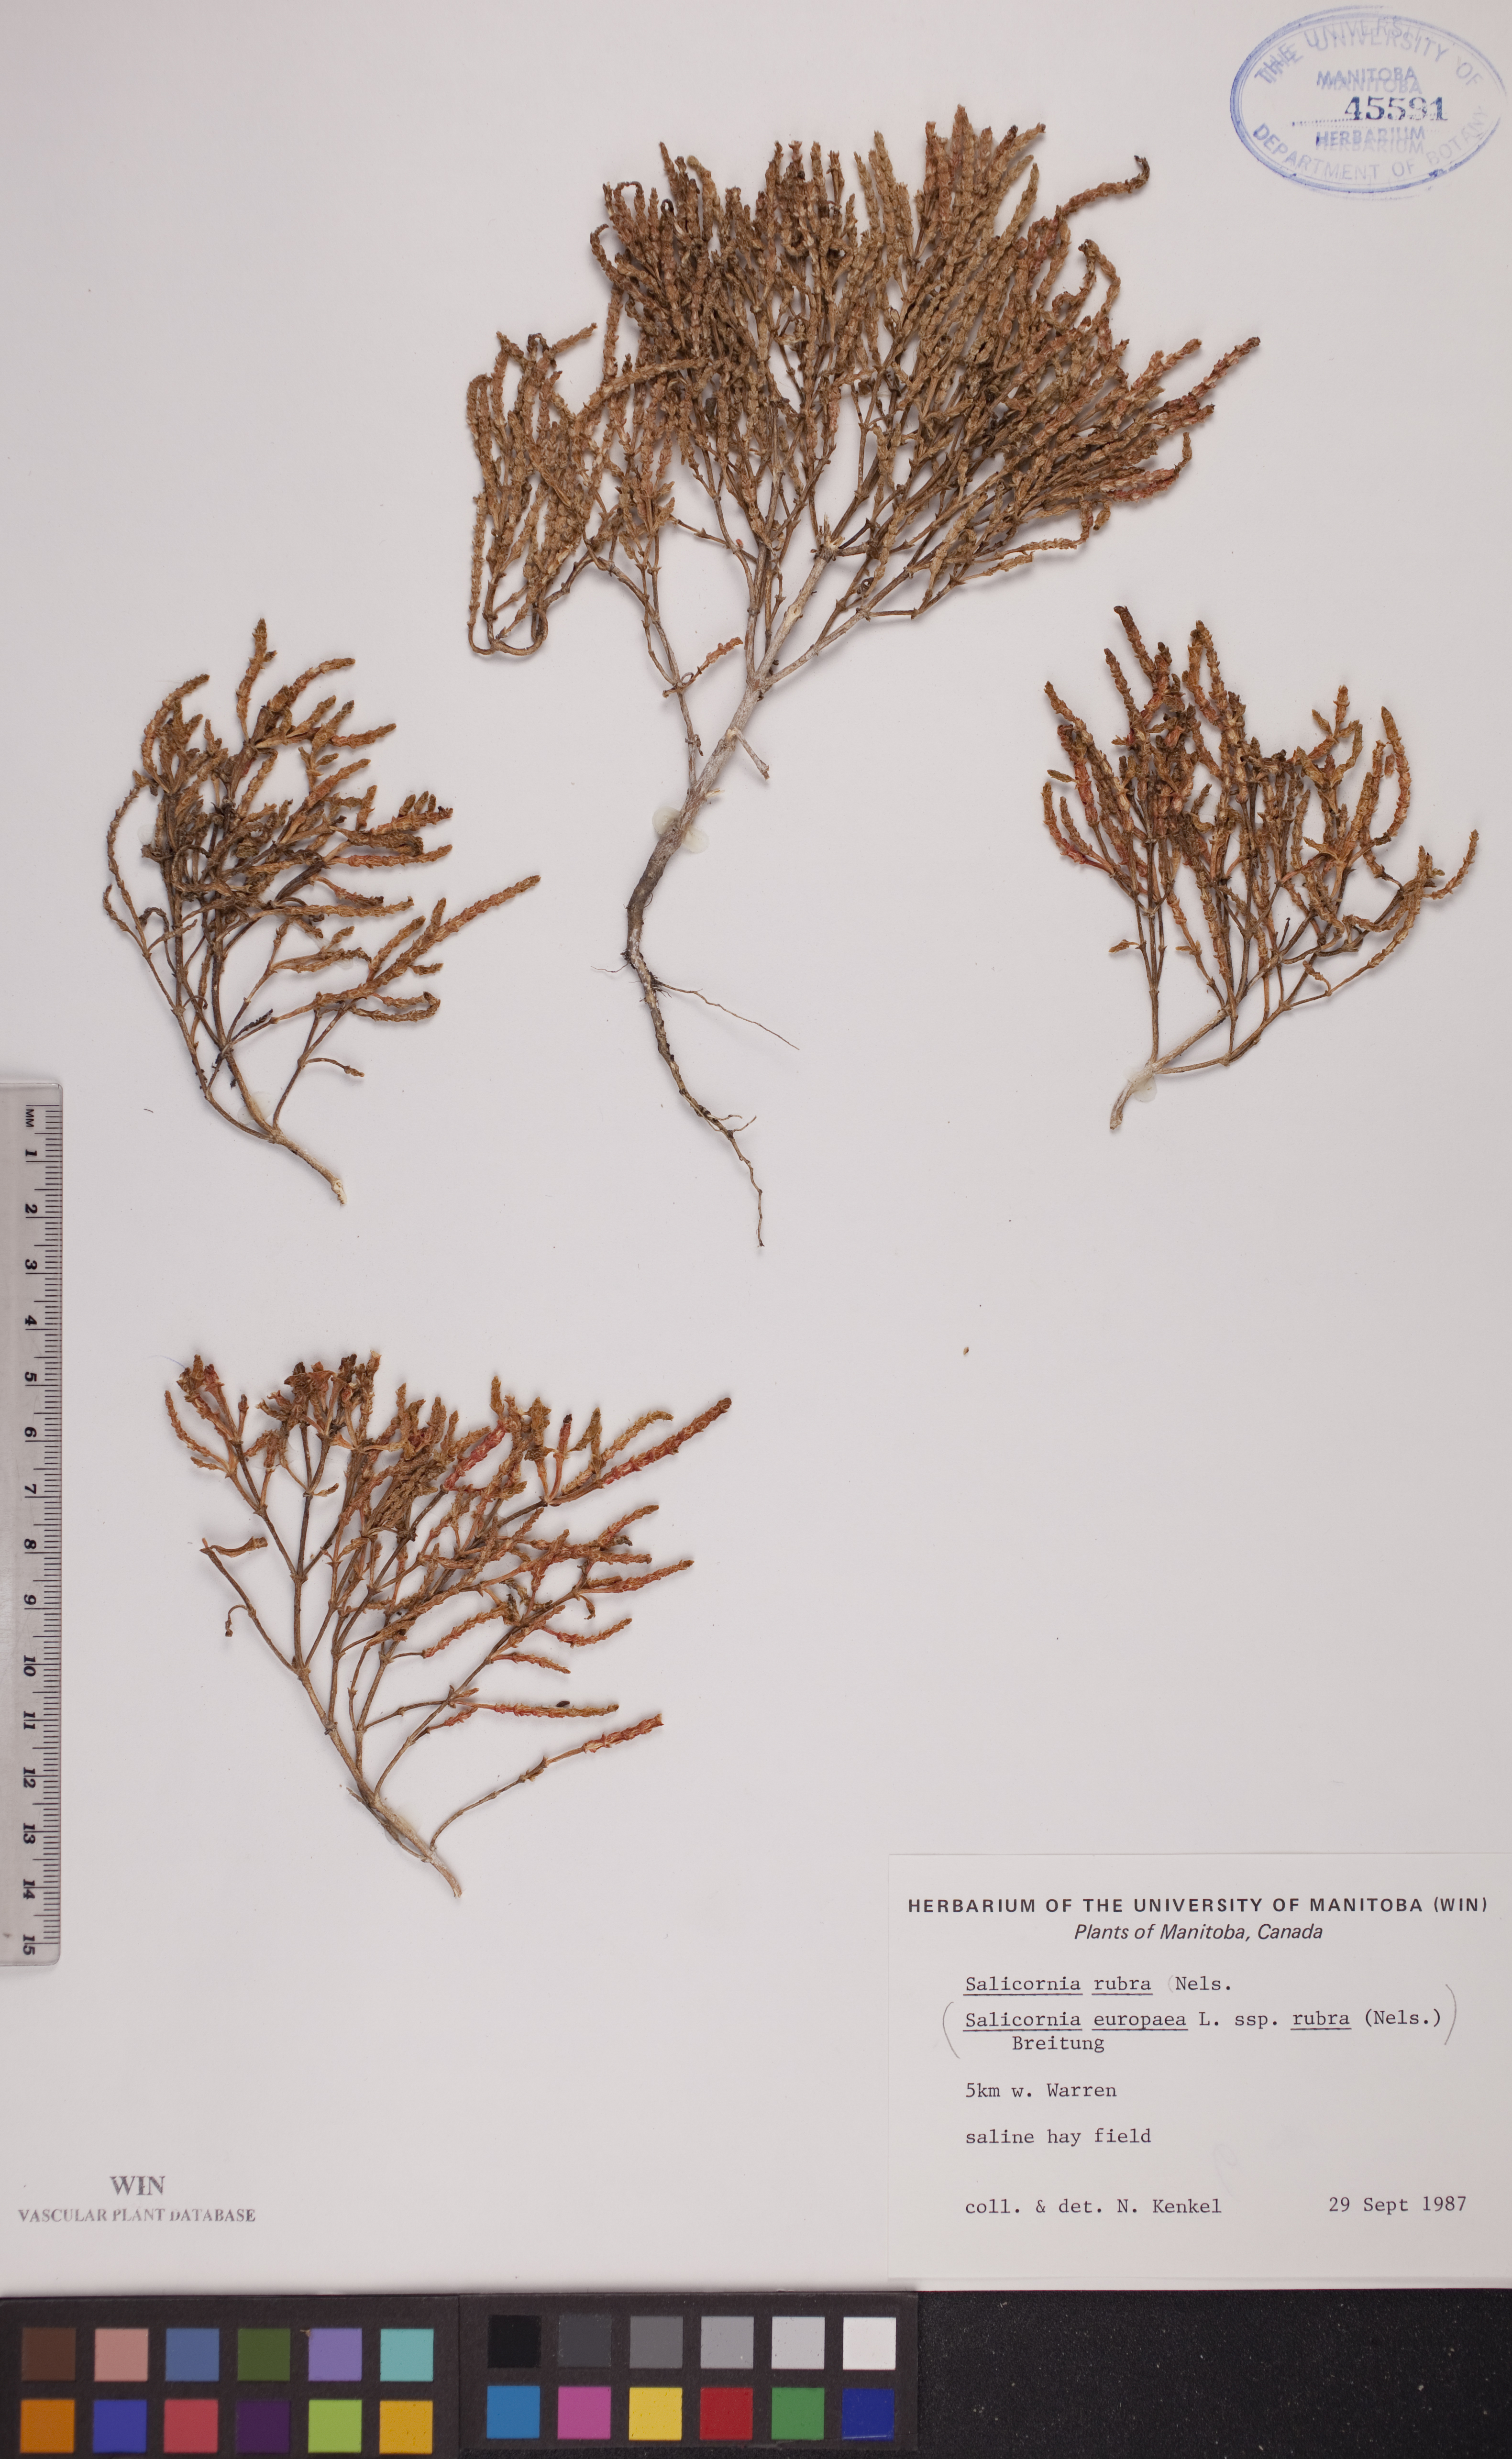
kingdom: Plantae
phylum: Tracheophyta
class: Magnoliopsida
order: Caryophyllales
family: Amaranthaceae
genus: Salicornia
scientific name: Salicornia rubra
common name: Red glasswort
